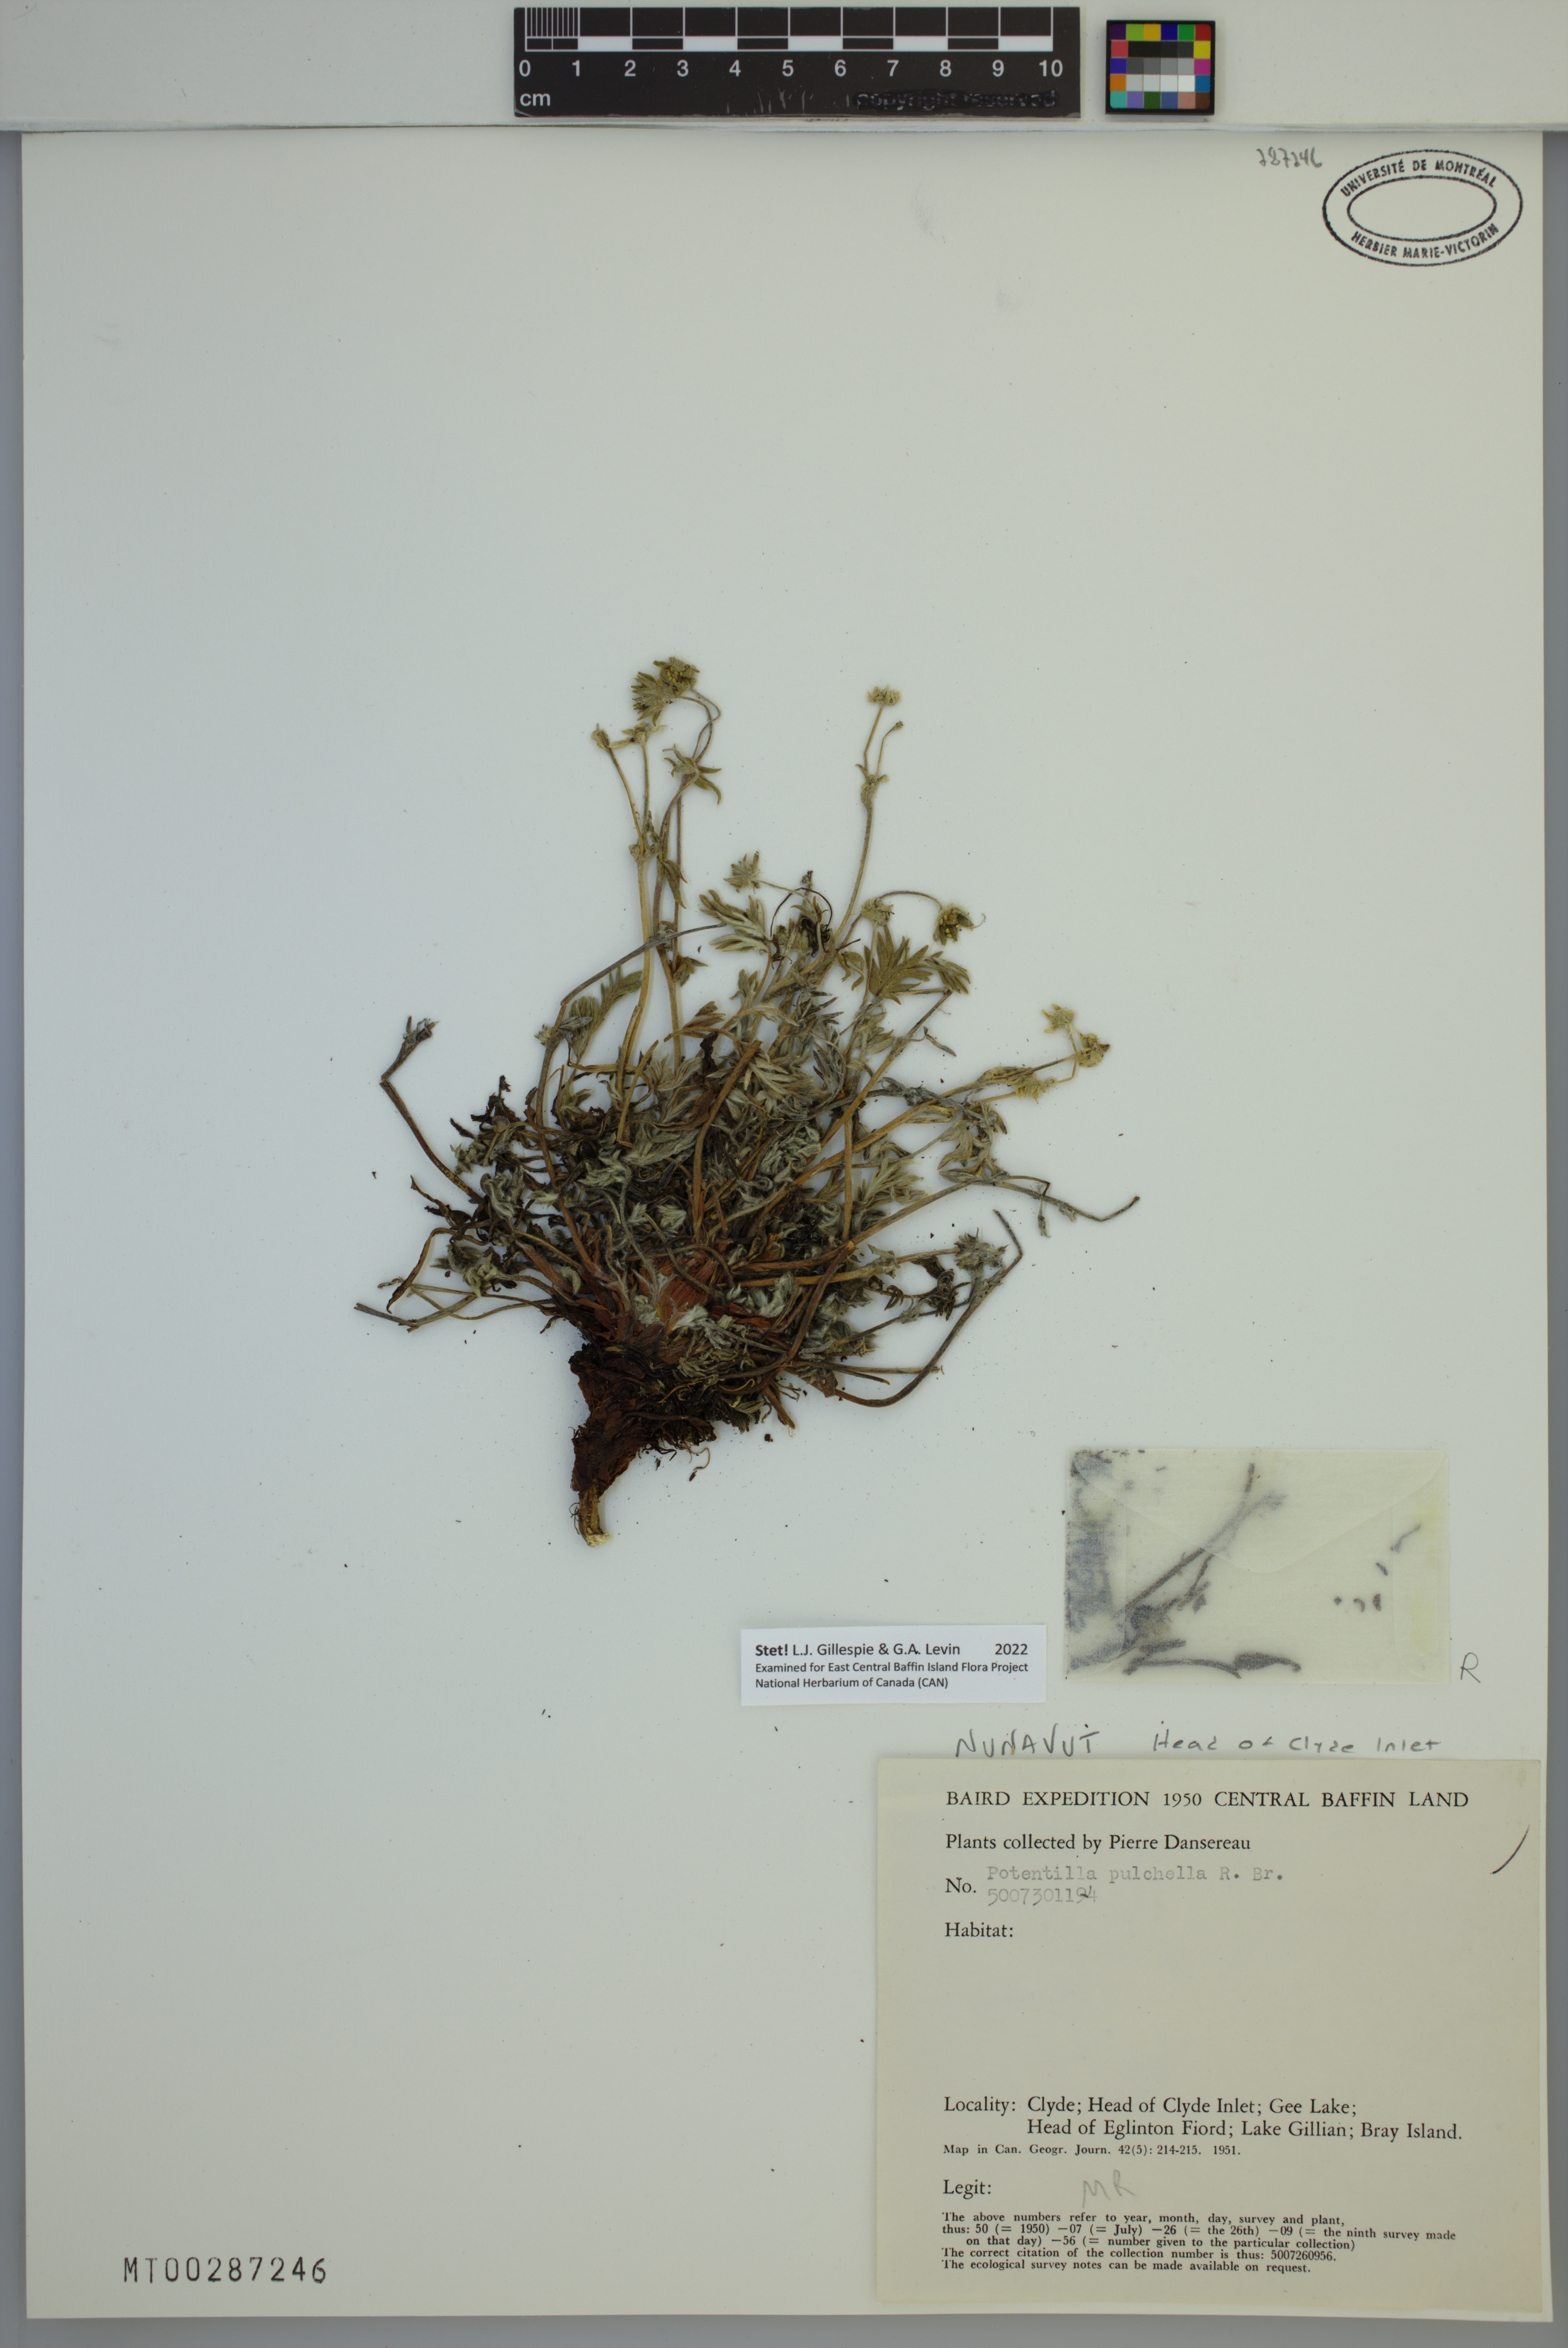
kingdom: Plantae
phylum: Tracheophyta
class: Magnoliopsida
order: Rosales
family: Rosaceae
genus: Potentilla
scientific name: Potentilla pulchella
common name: Pretty cinquefoil
